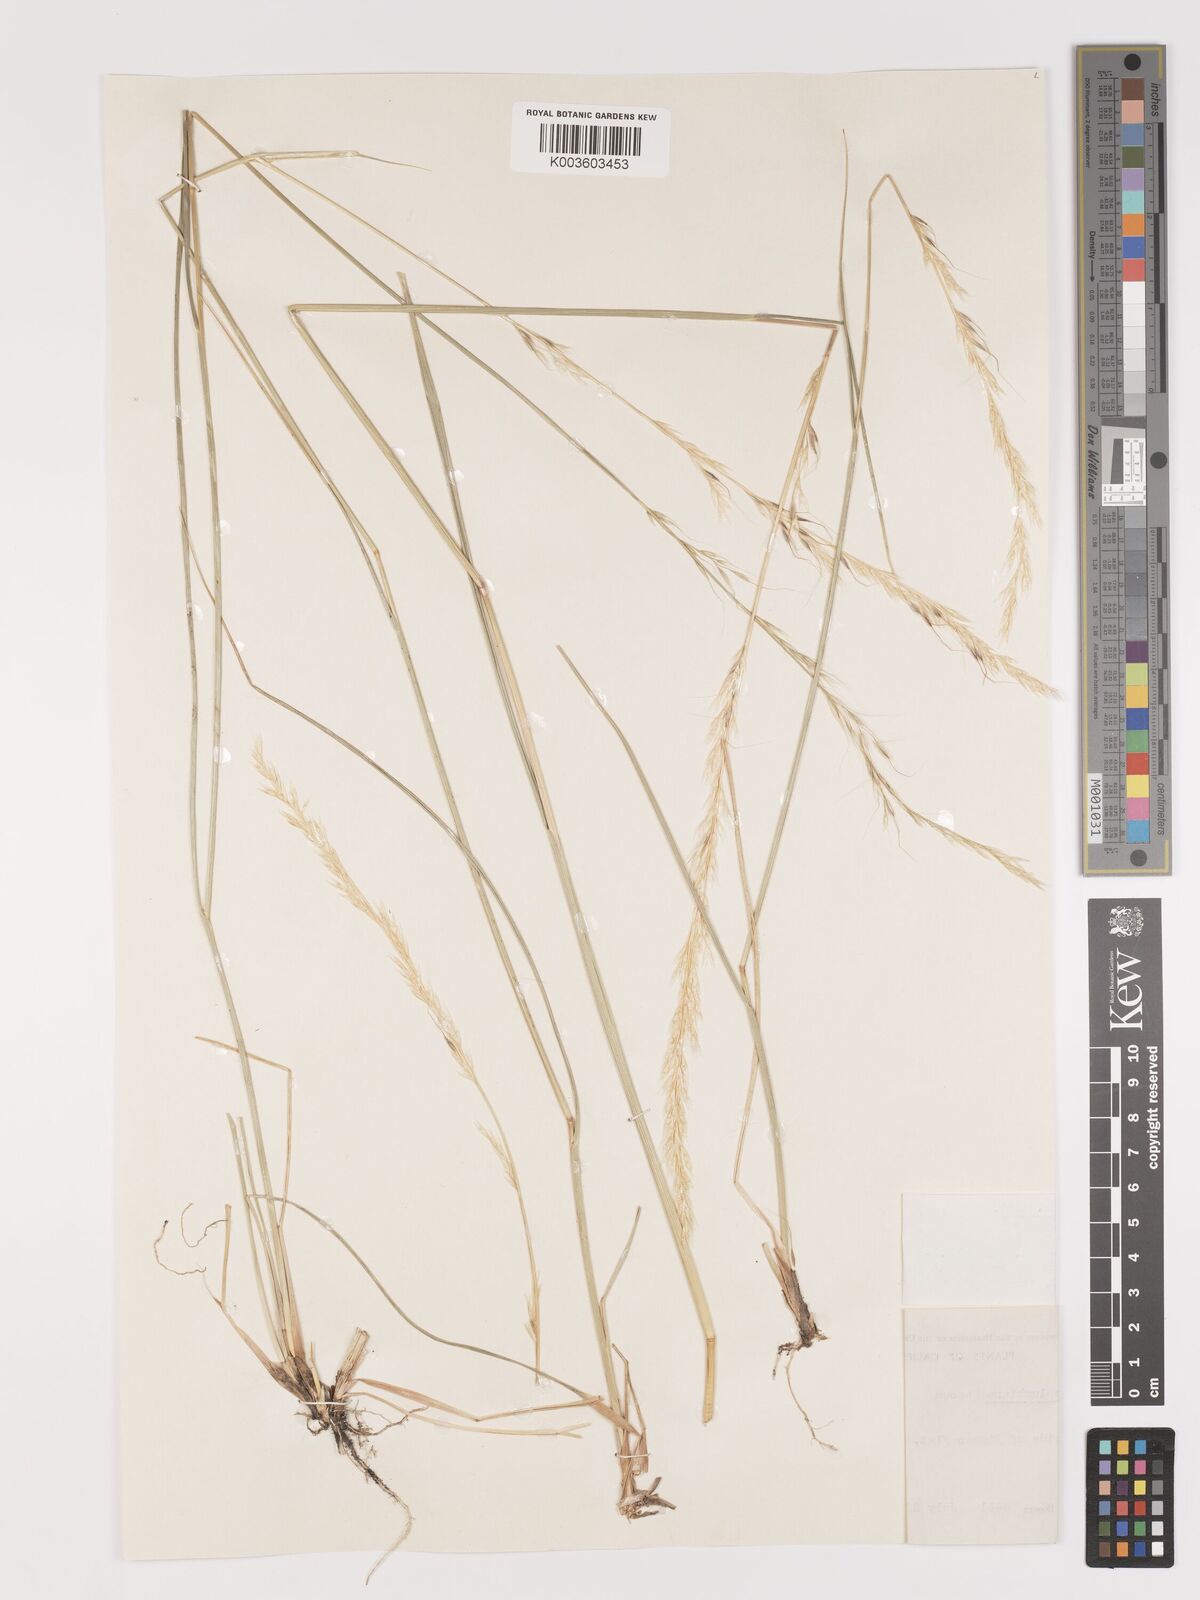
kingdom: Plantae
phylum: Tracheophyta
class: Liliopsida
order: Poales
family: Poaceae
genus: Eriocoma
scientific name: Eriocoma nelsonii
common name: Nelson's needlegrass
